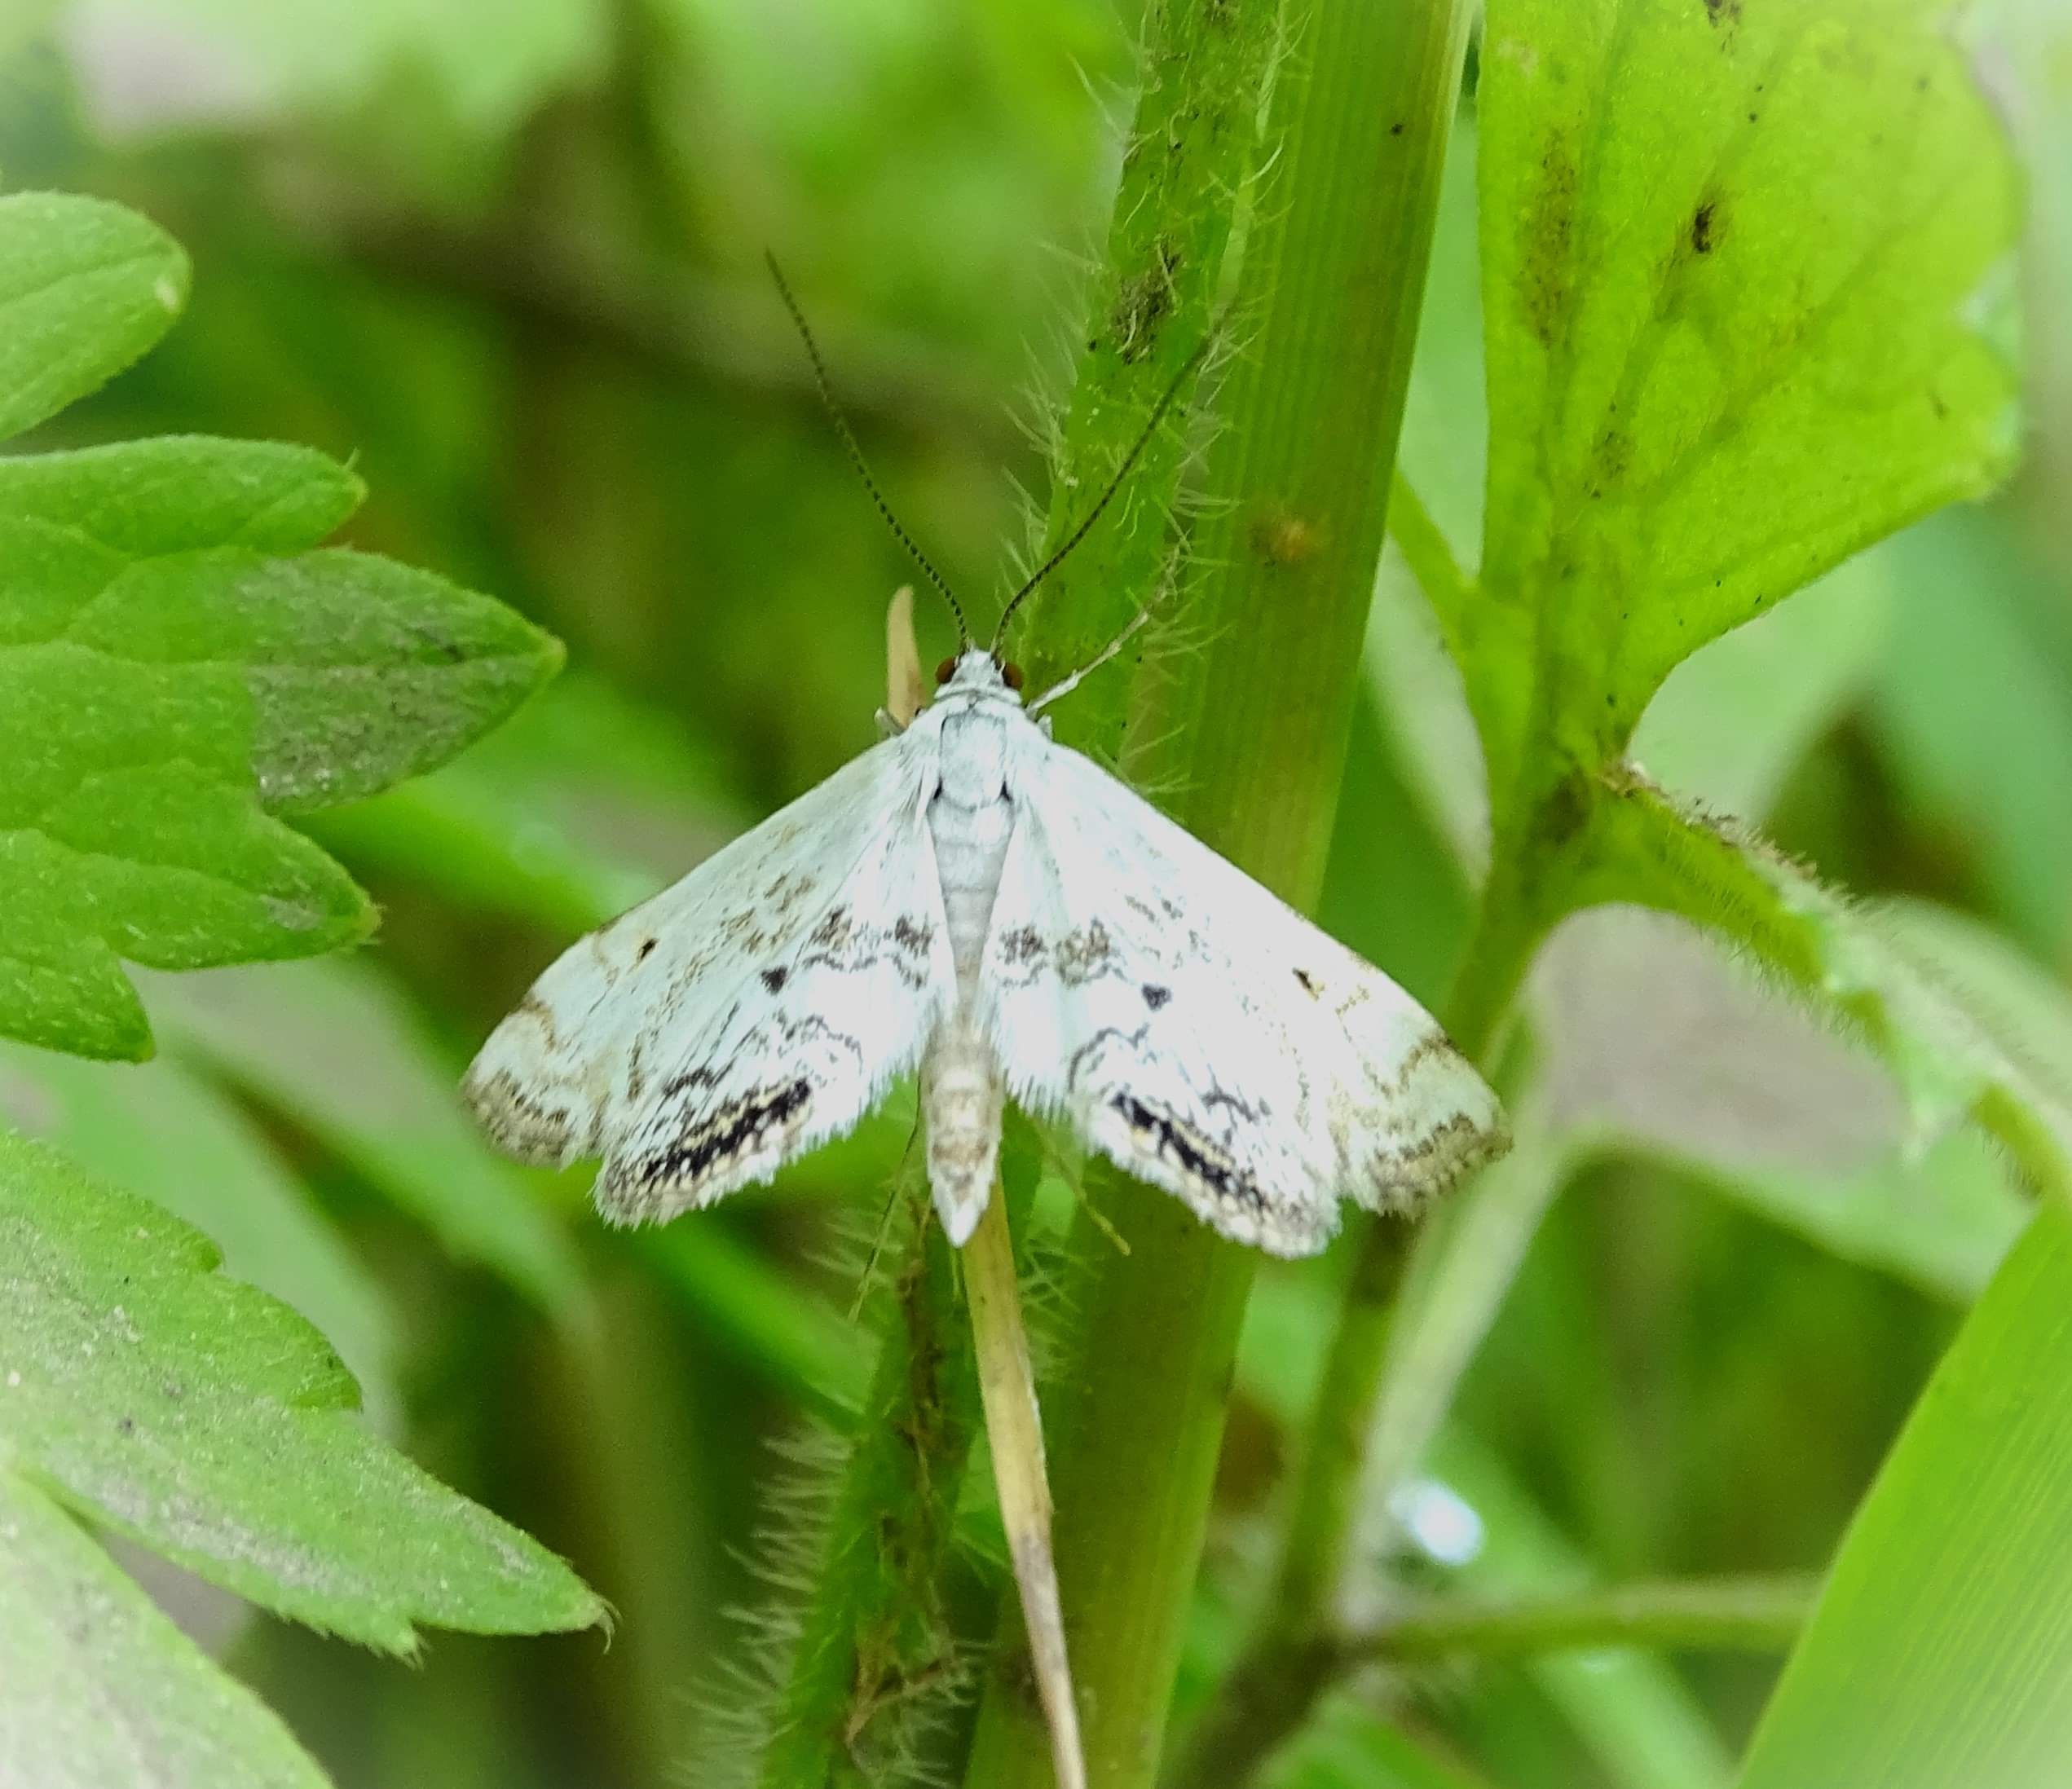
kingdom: Animalia
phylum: Arthropoda
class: Insecta
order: Lepidoptera
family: Crambidae
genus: Cataclysta
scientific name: Cataclysta lemnata
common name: Andemadhalvmøl
